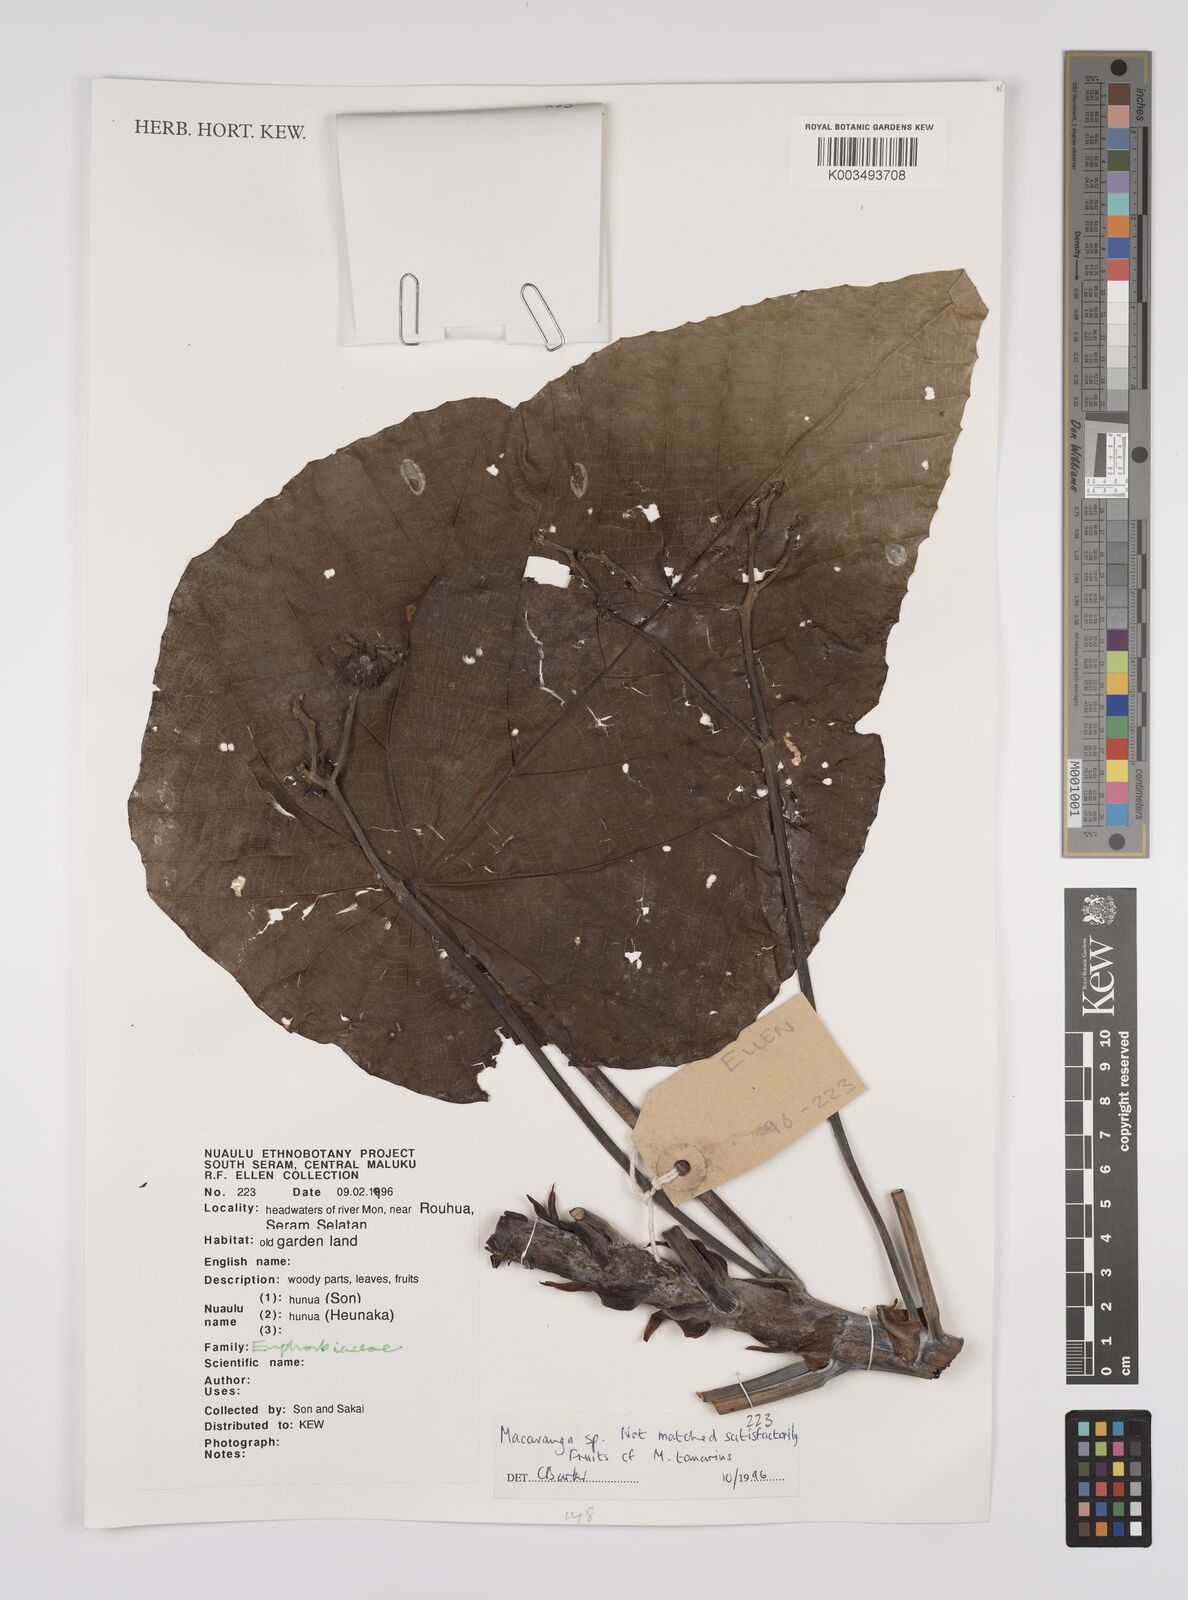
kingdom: Plantae
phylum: Tracheophyta
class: Magnoliopsida
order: Malpighiales
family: Euphorbiaceae
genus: Macaranga
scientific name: Macaranga tanarius
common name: Parasol leaf tree
